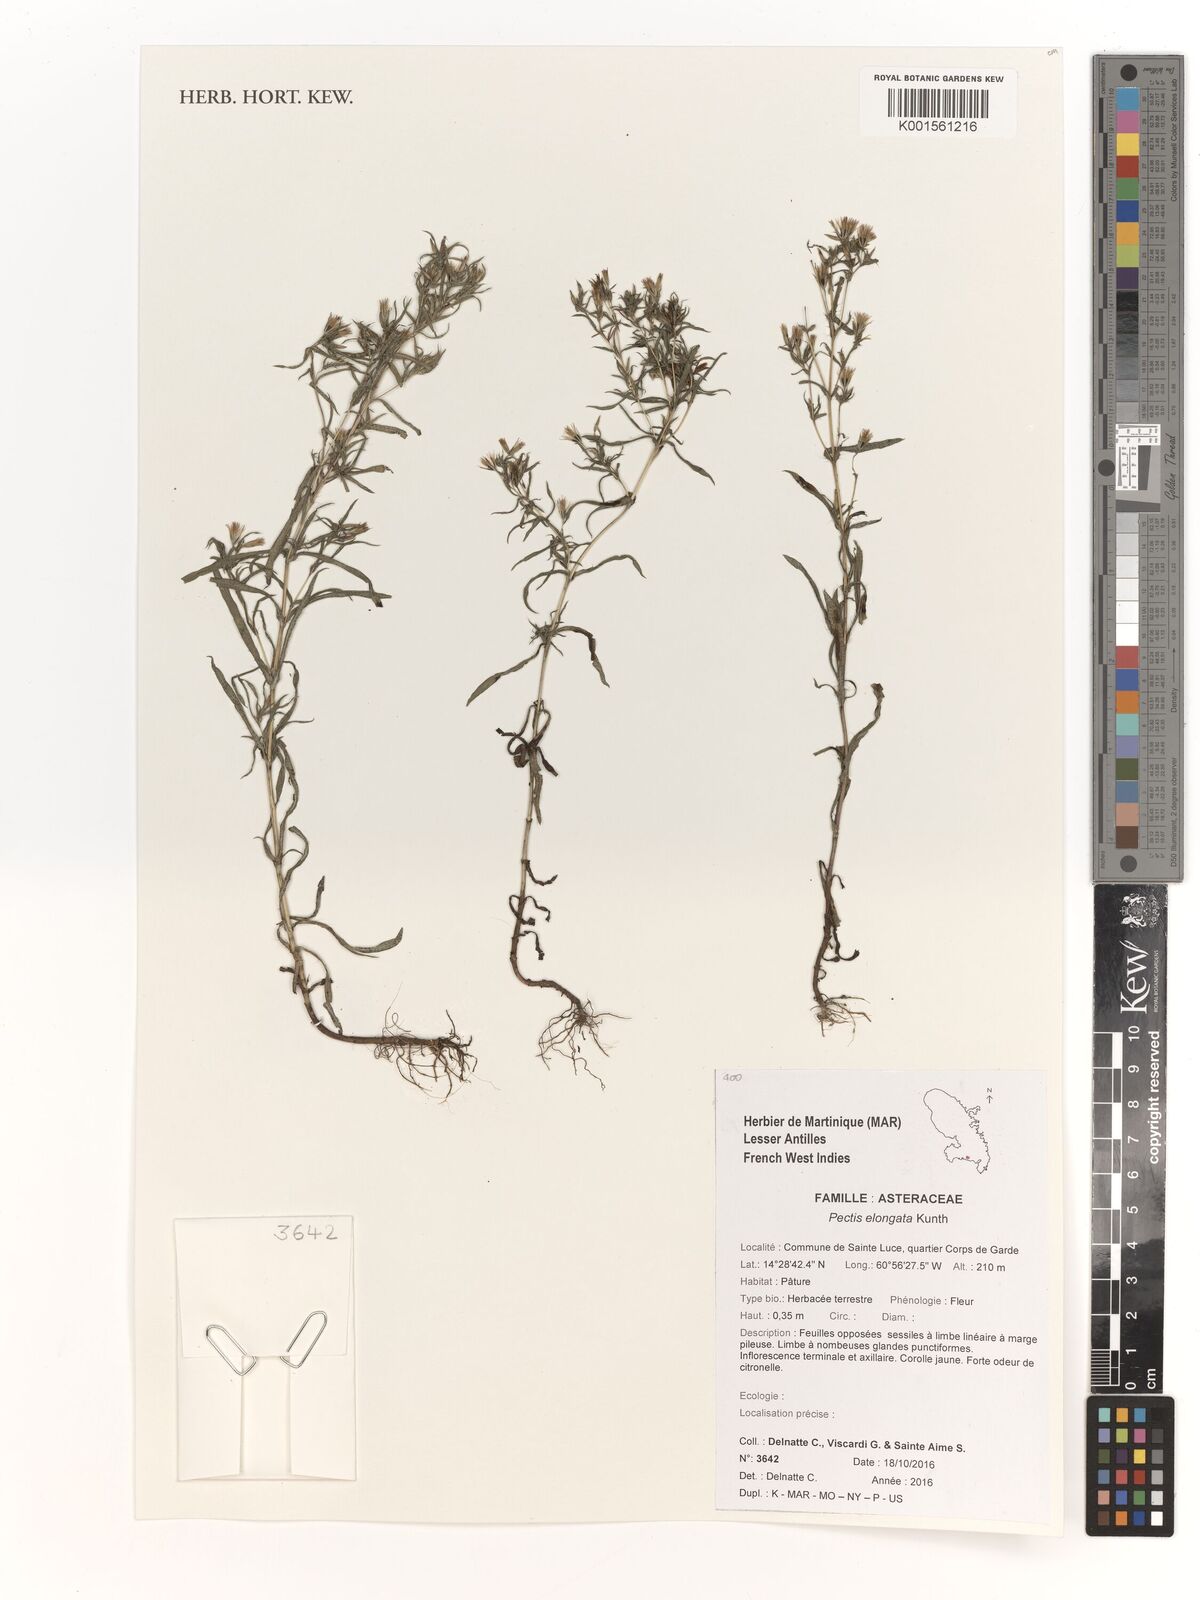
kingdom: Plantae
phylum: Tracheophyta
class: Magnoliopsida
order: Asterales
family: Asteraceae
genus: Pectis
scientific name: Pectis elongata
